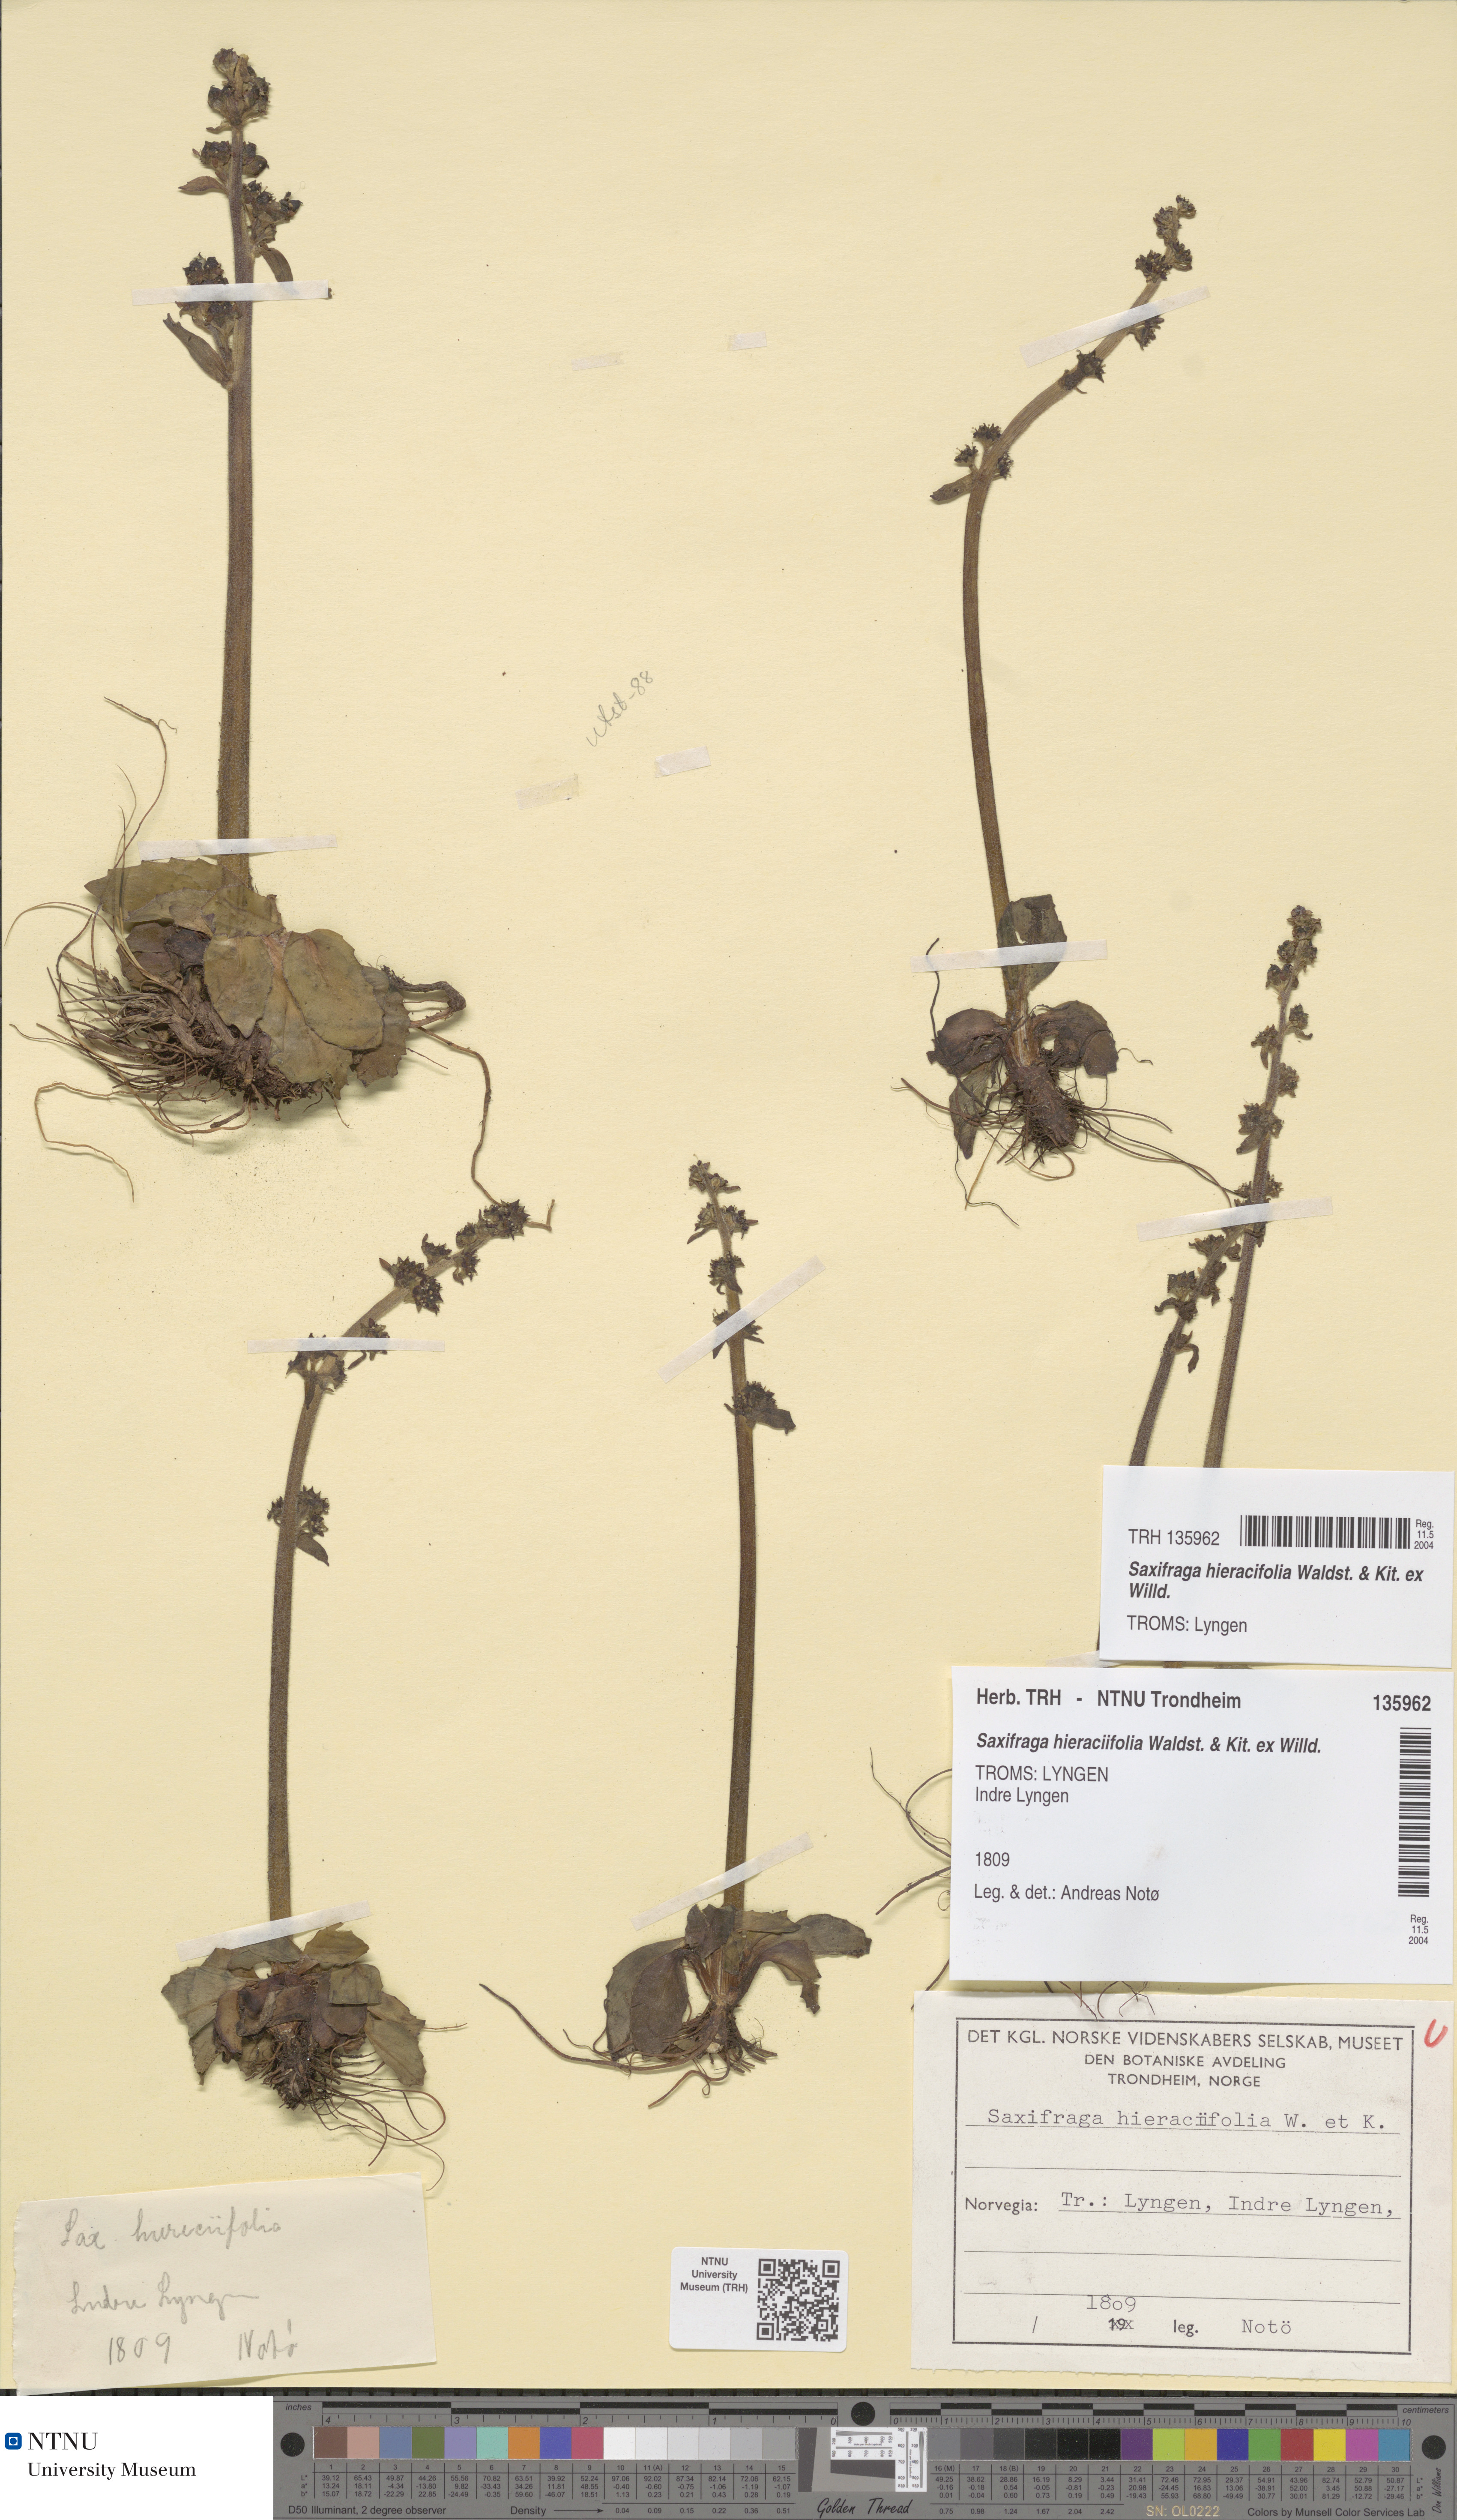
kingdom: Plantae
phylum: Tracheophyta
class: Magnoliopsida
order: Saxifragales
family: Saxifragaceae
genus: Micranthes
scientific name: Micranthes hieraciifolia
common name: Hawkweed-leaved saxifrage
